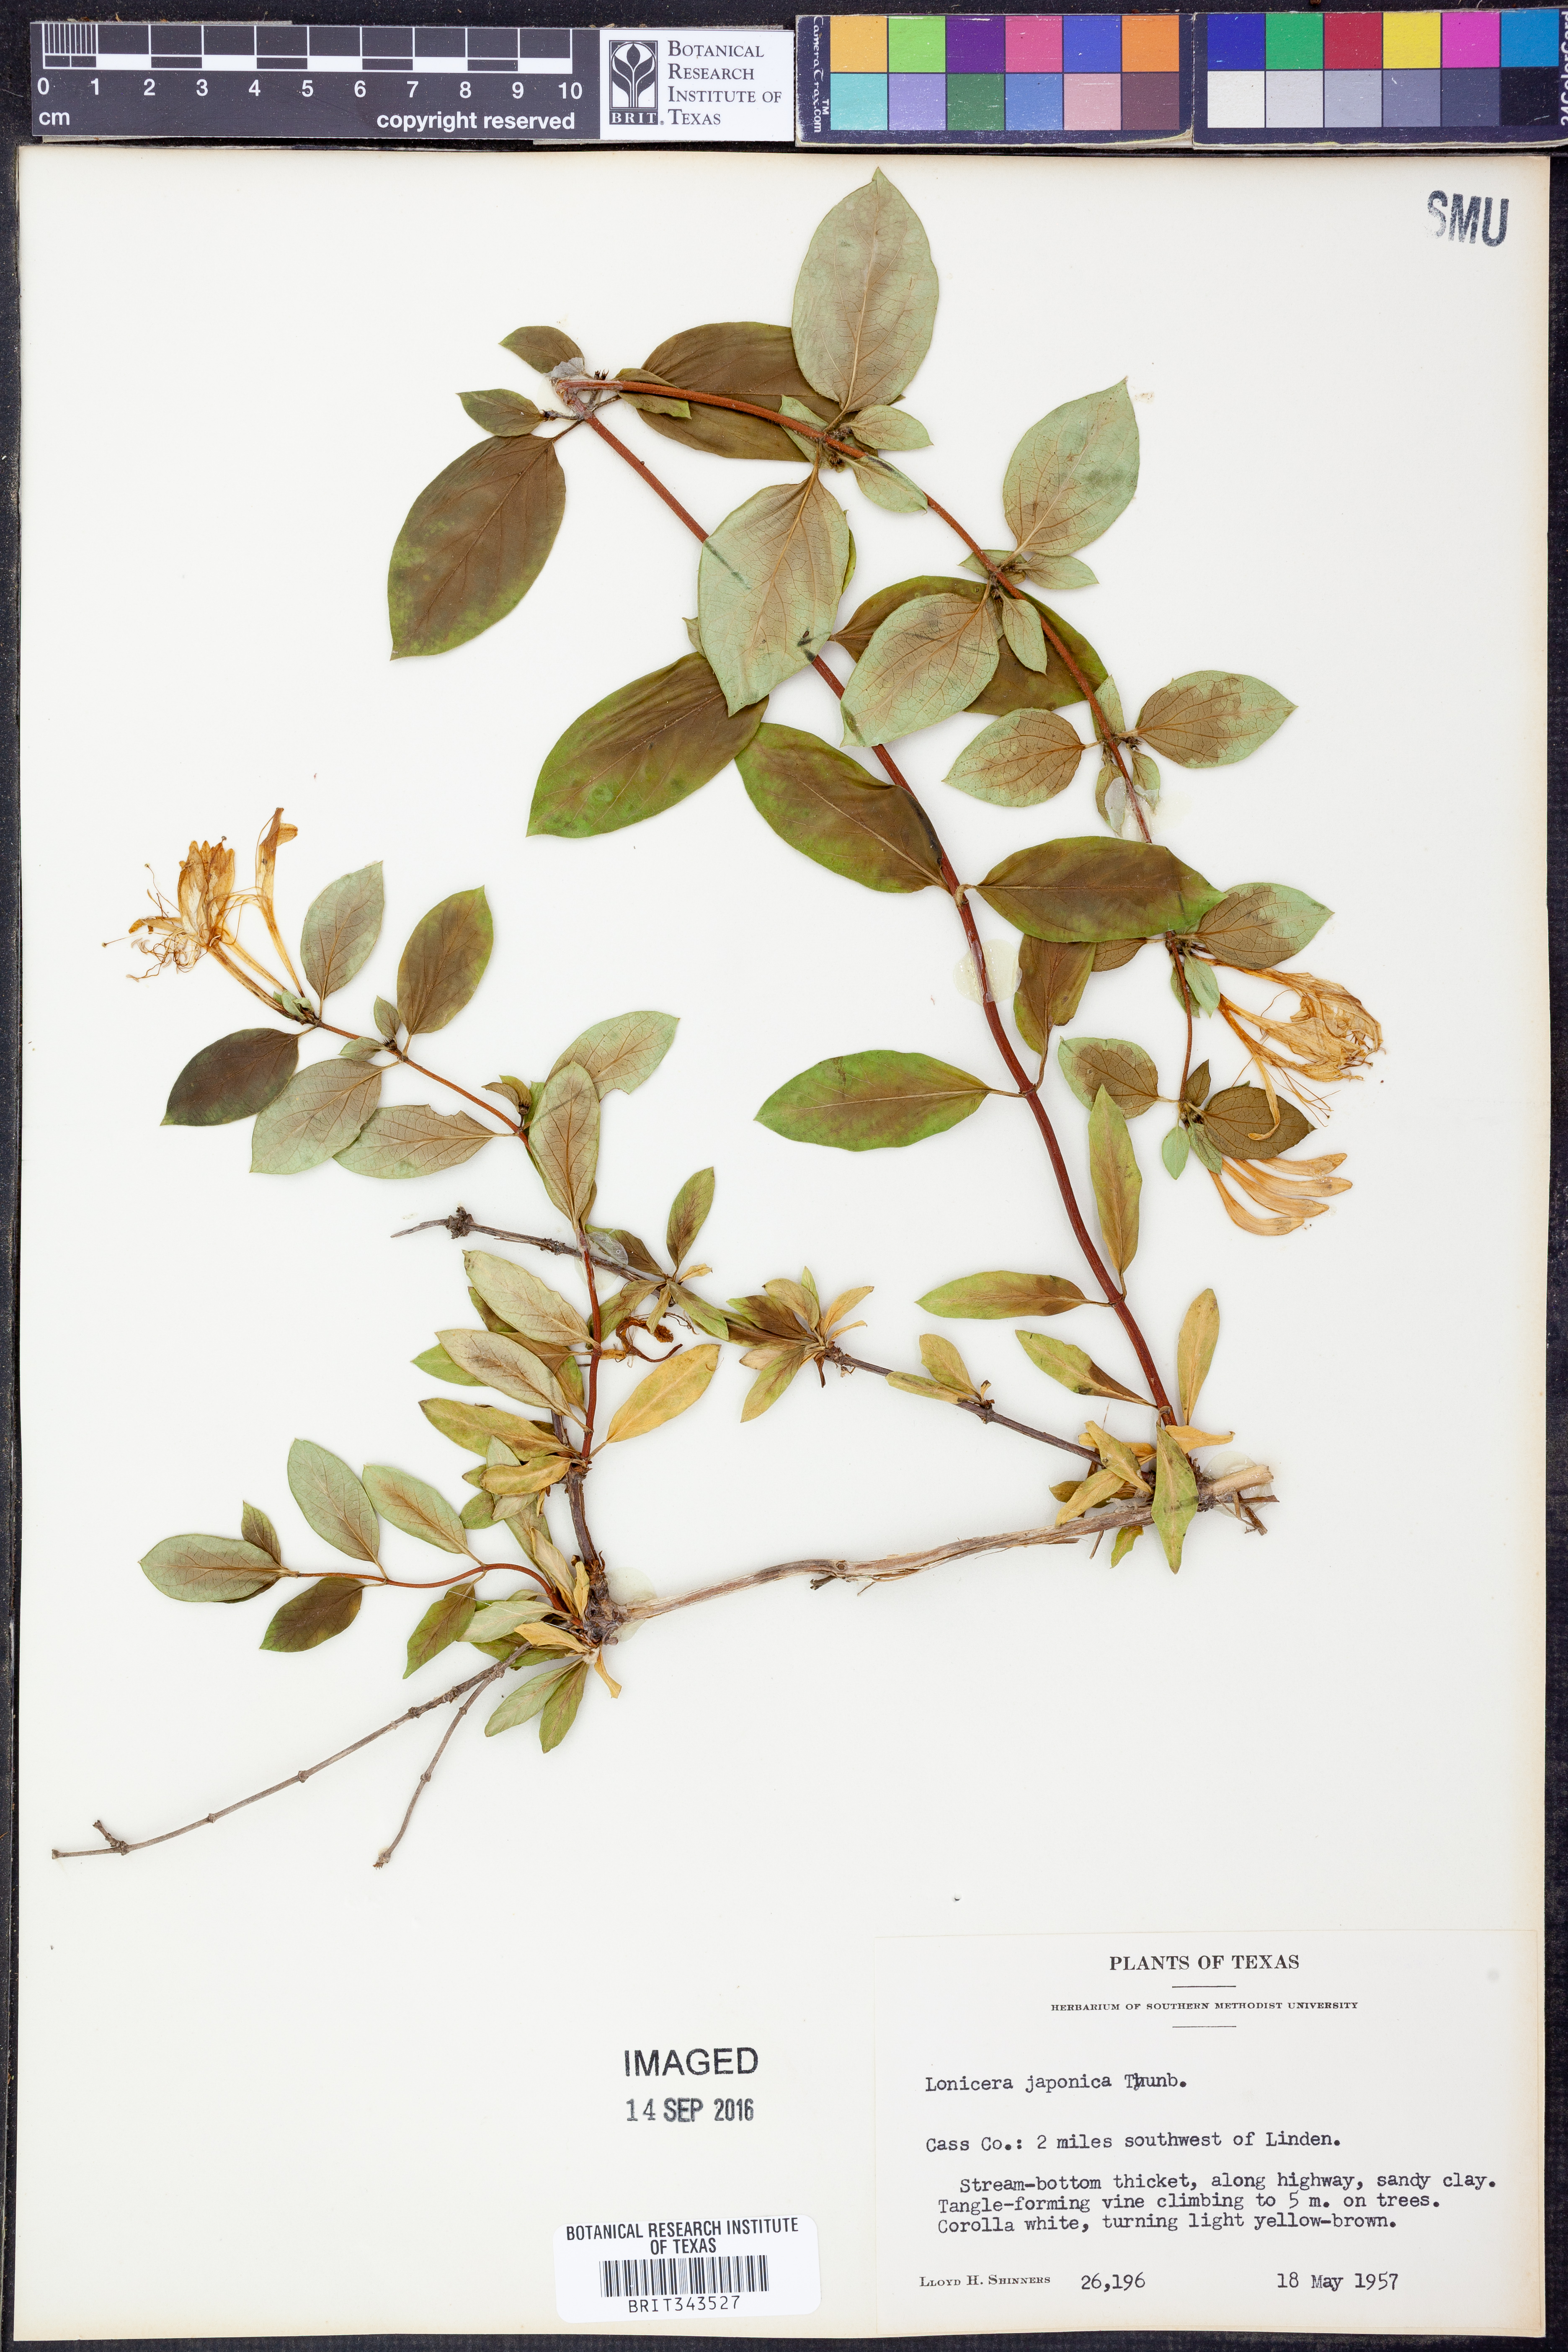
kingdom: Plantae
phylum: Tracheophyta
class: Magnoliopsida
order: Dipsacales
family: Caprifoliaceae
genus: Lonicera
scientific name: Lonicera japonica
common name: Japanese honeysuckle
